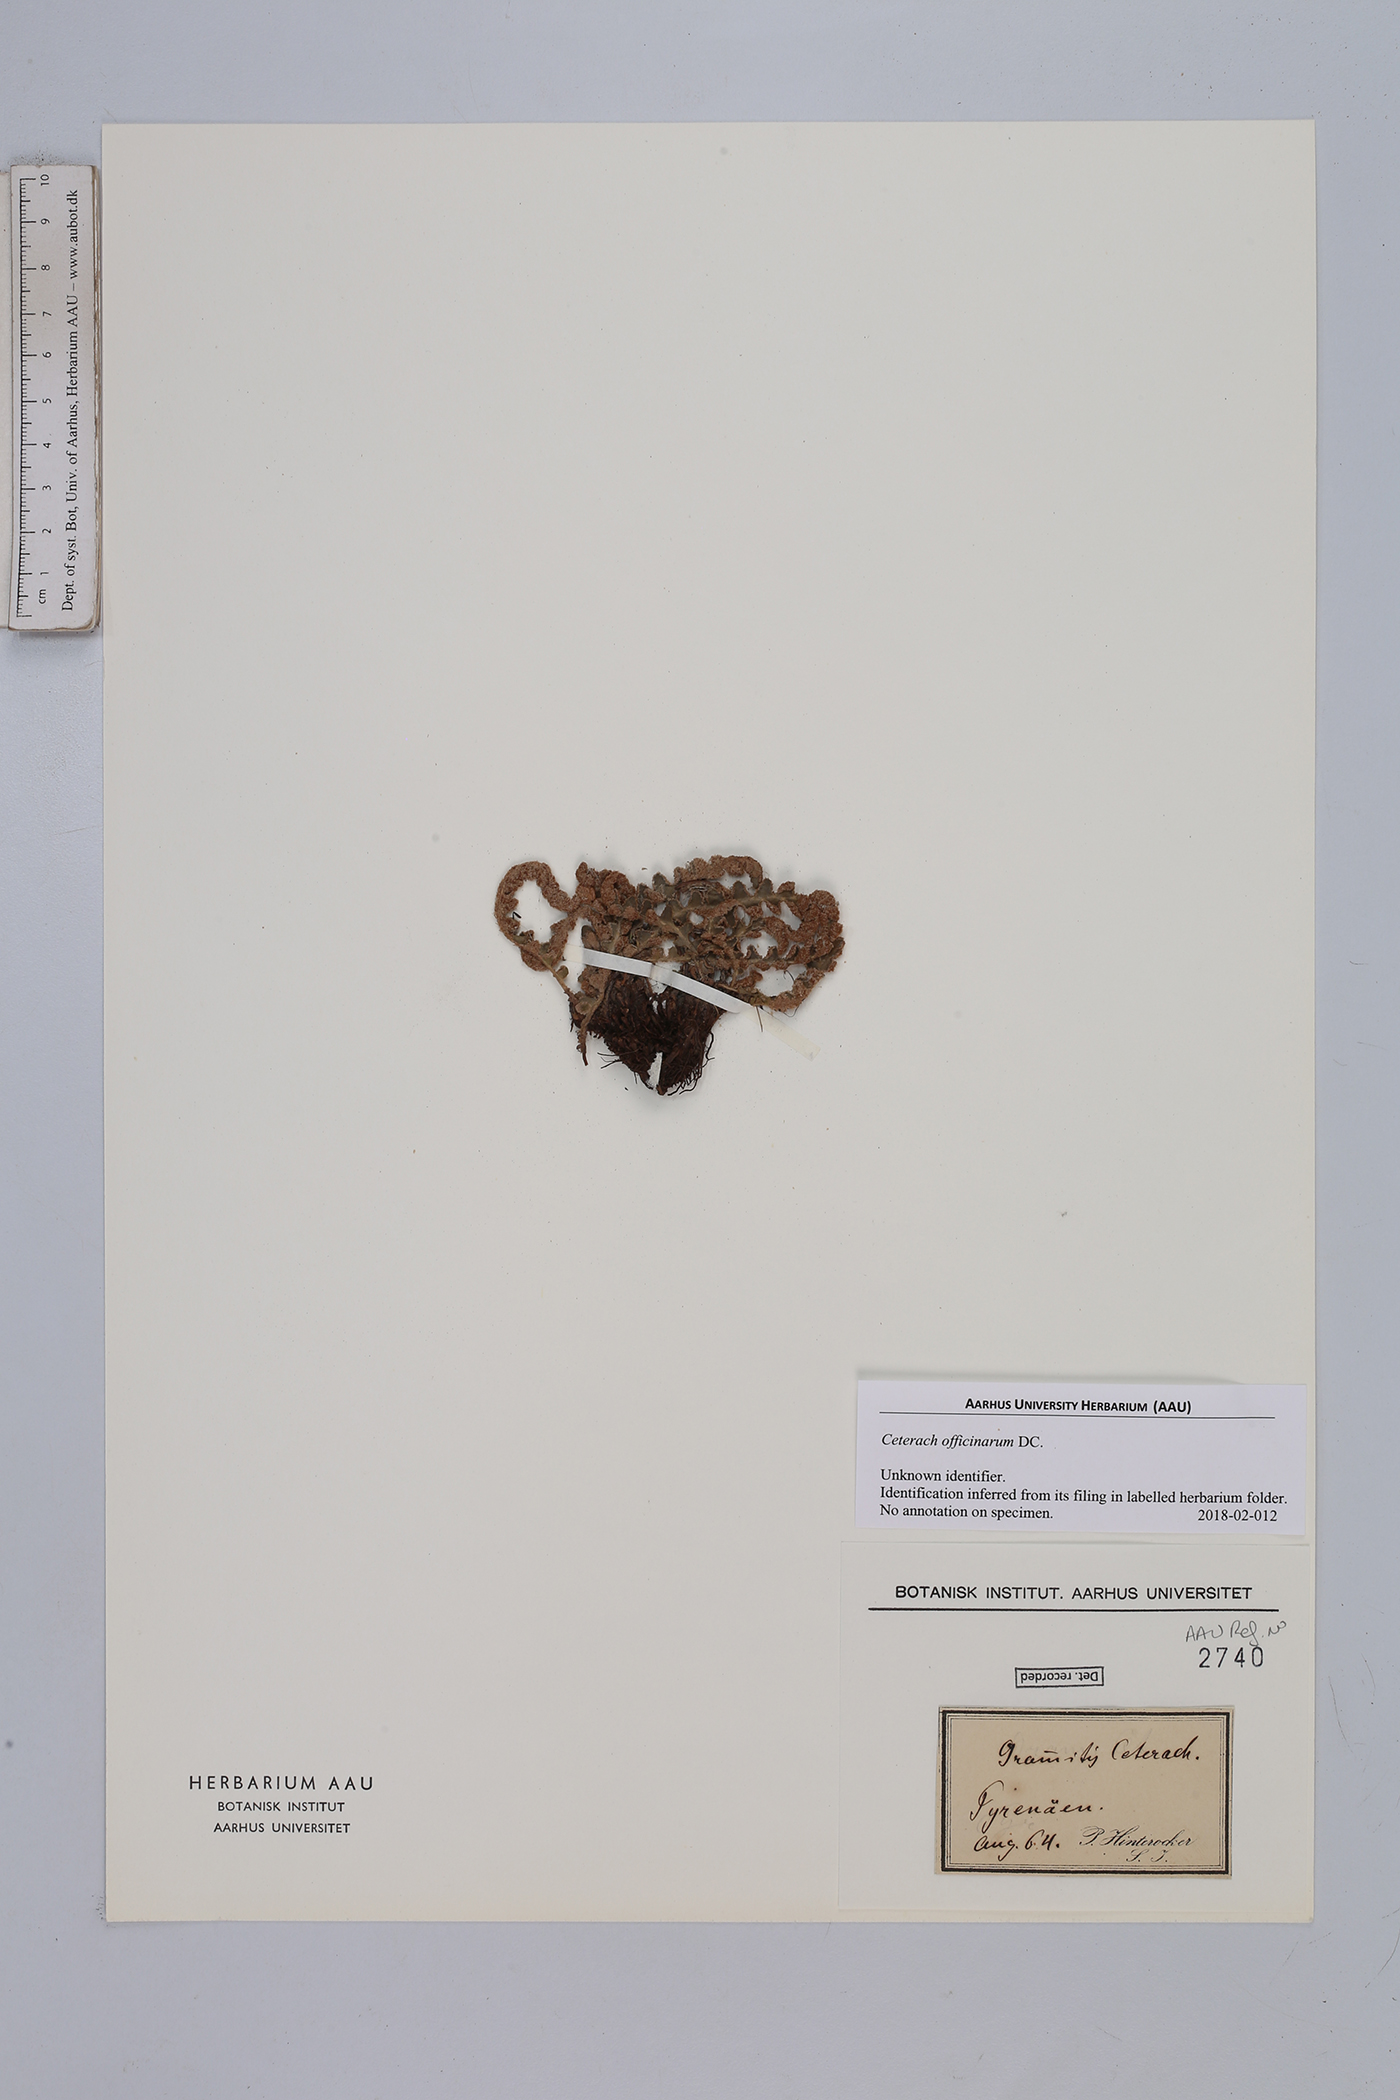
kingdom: Plantae
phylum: Tracheophyta
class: Polypodiopsida
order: Polypodiales
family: Aspleniaceae
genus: Asplenium
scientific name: Asplenium ceterach
